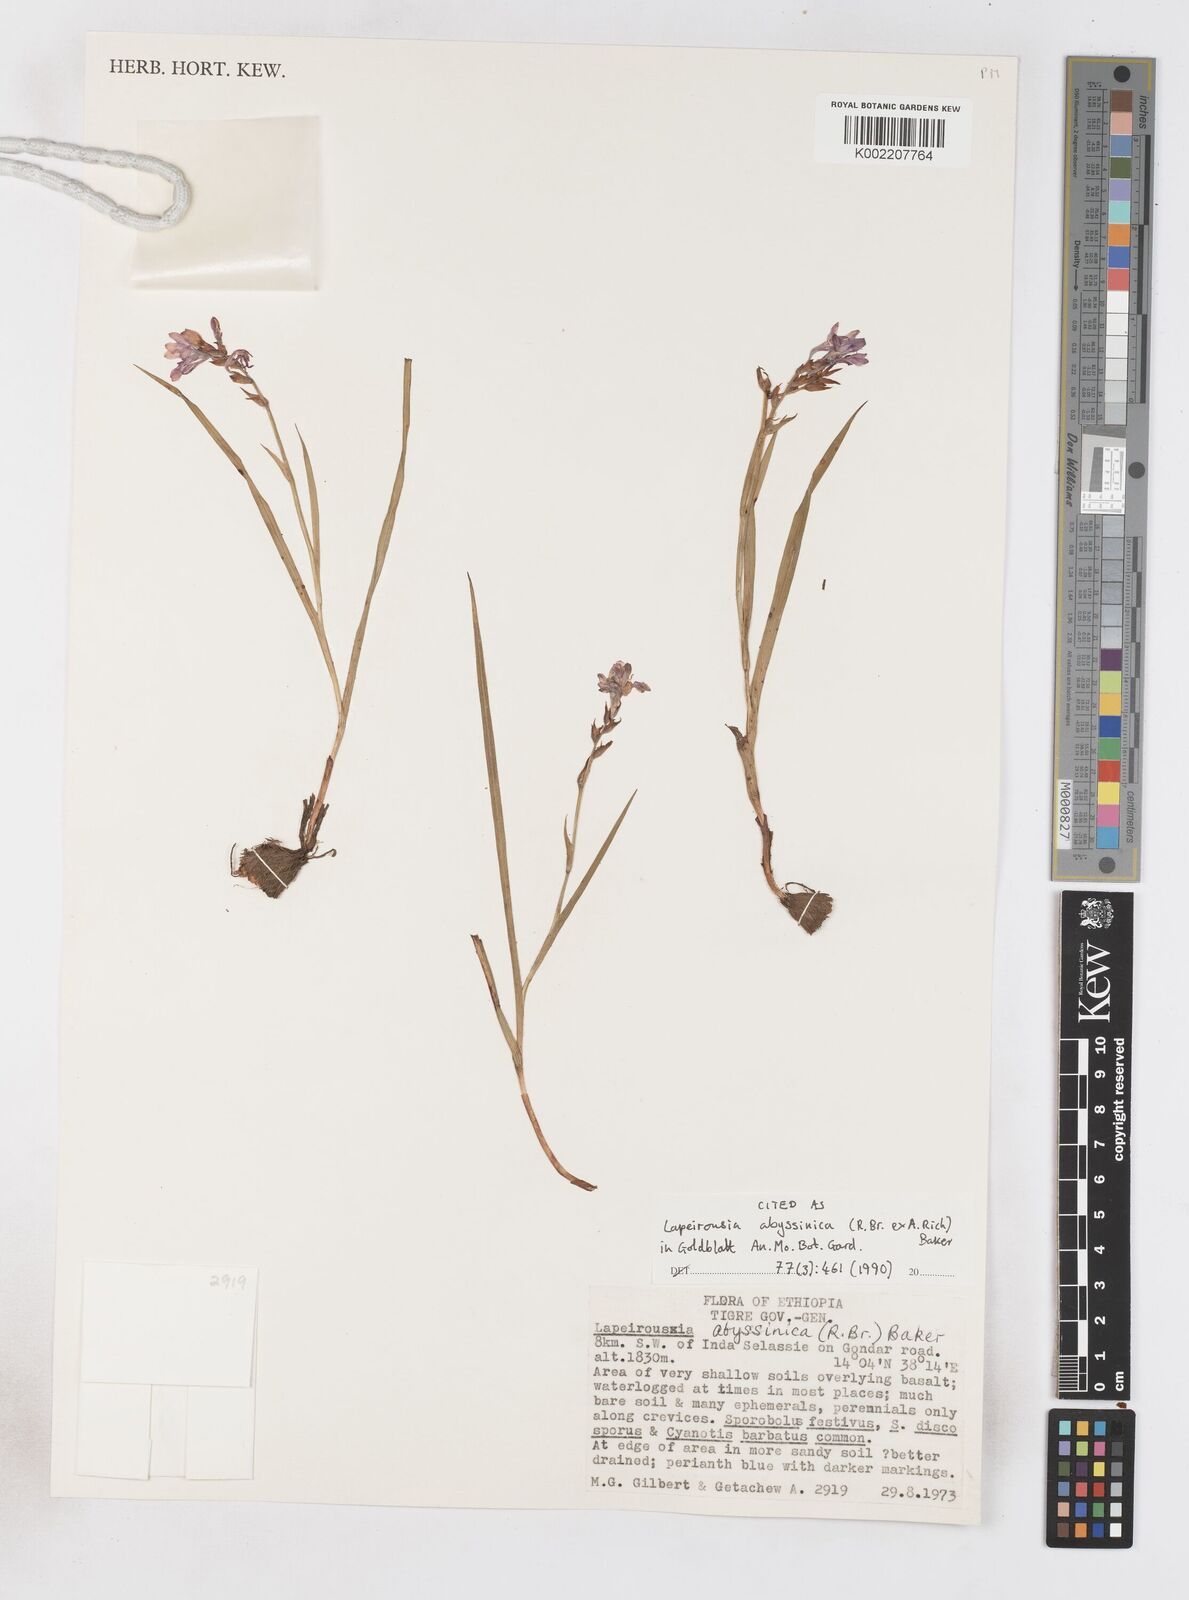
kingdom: Plantae
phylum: Tracheophyta
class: Liliopsida
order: Asparagales
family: Iridaceae
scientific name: Iridaceae
